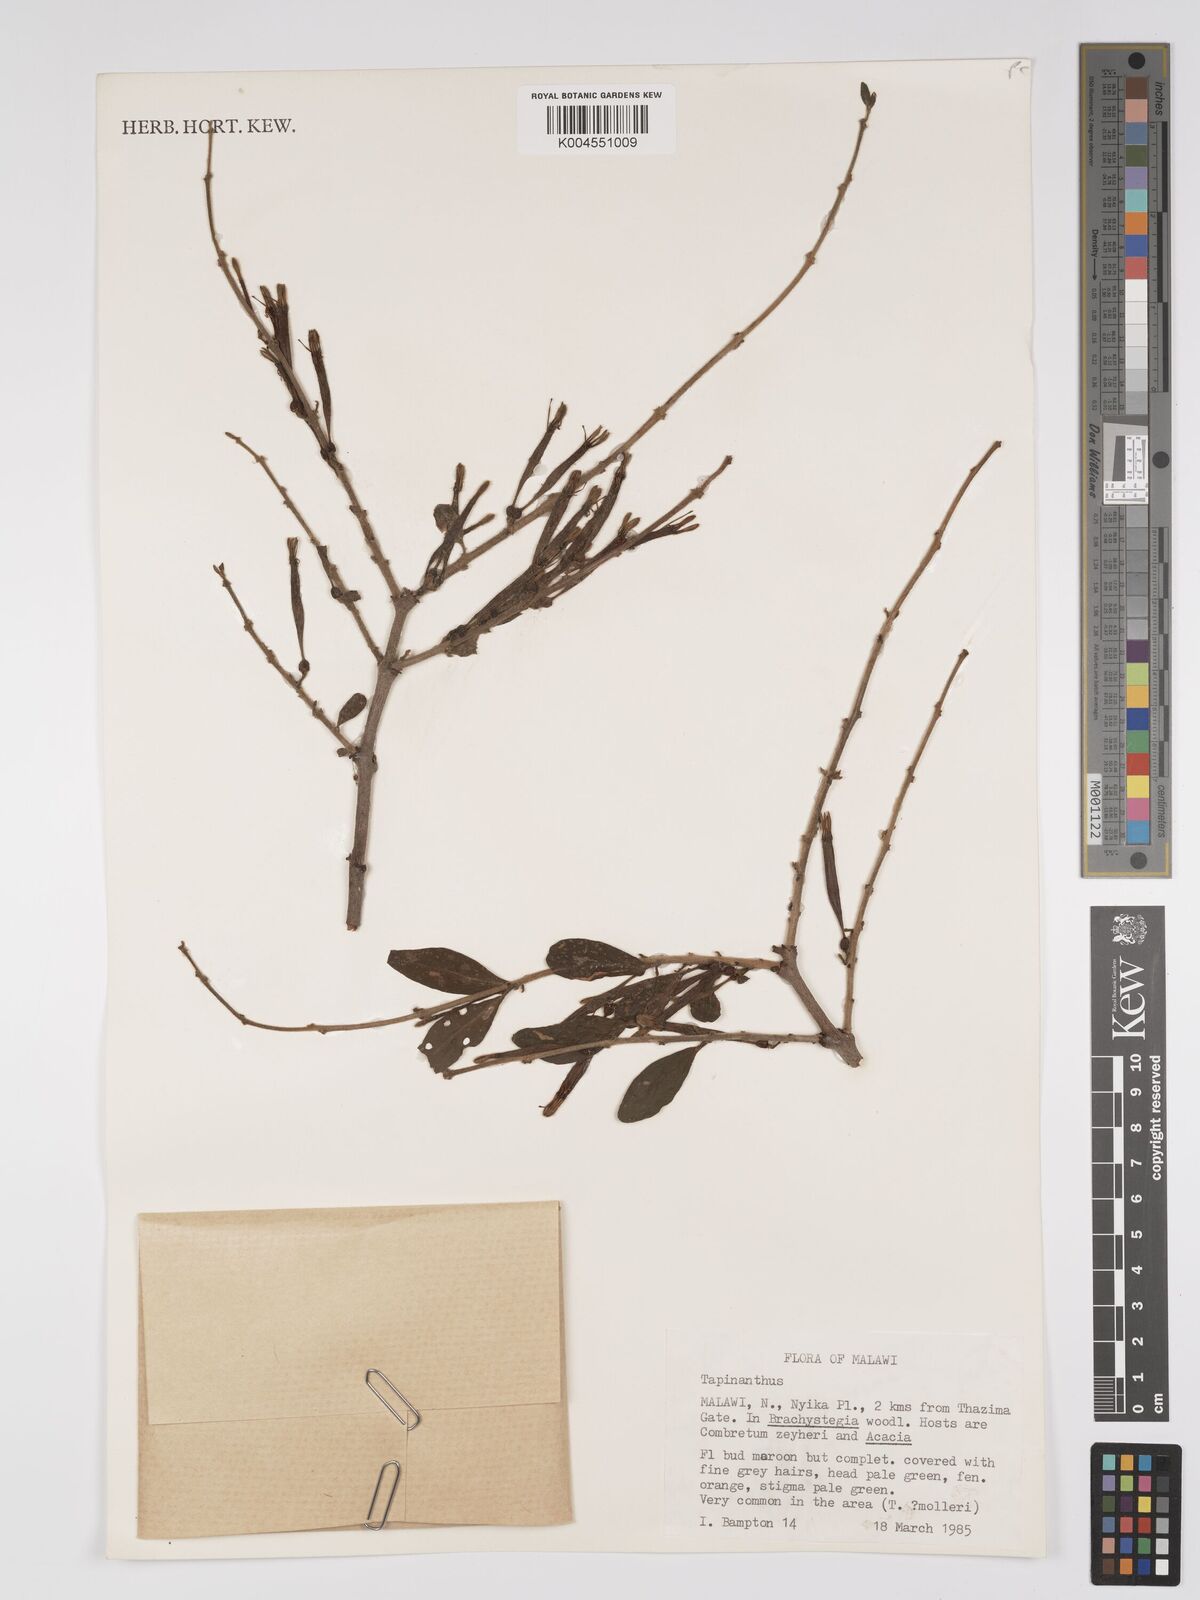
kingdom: Plantae
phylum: Tracheophyta
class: Magnoliopsida
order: Santalales
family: Loranthaceae
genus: Agelanthus
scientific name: Agelanthus molleri
